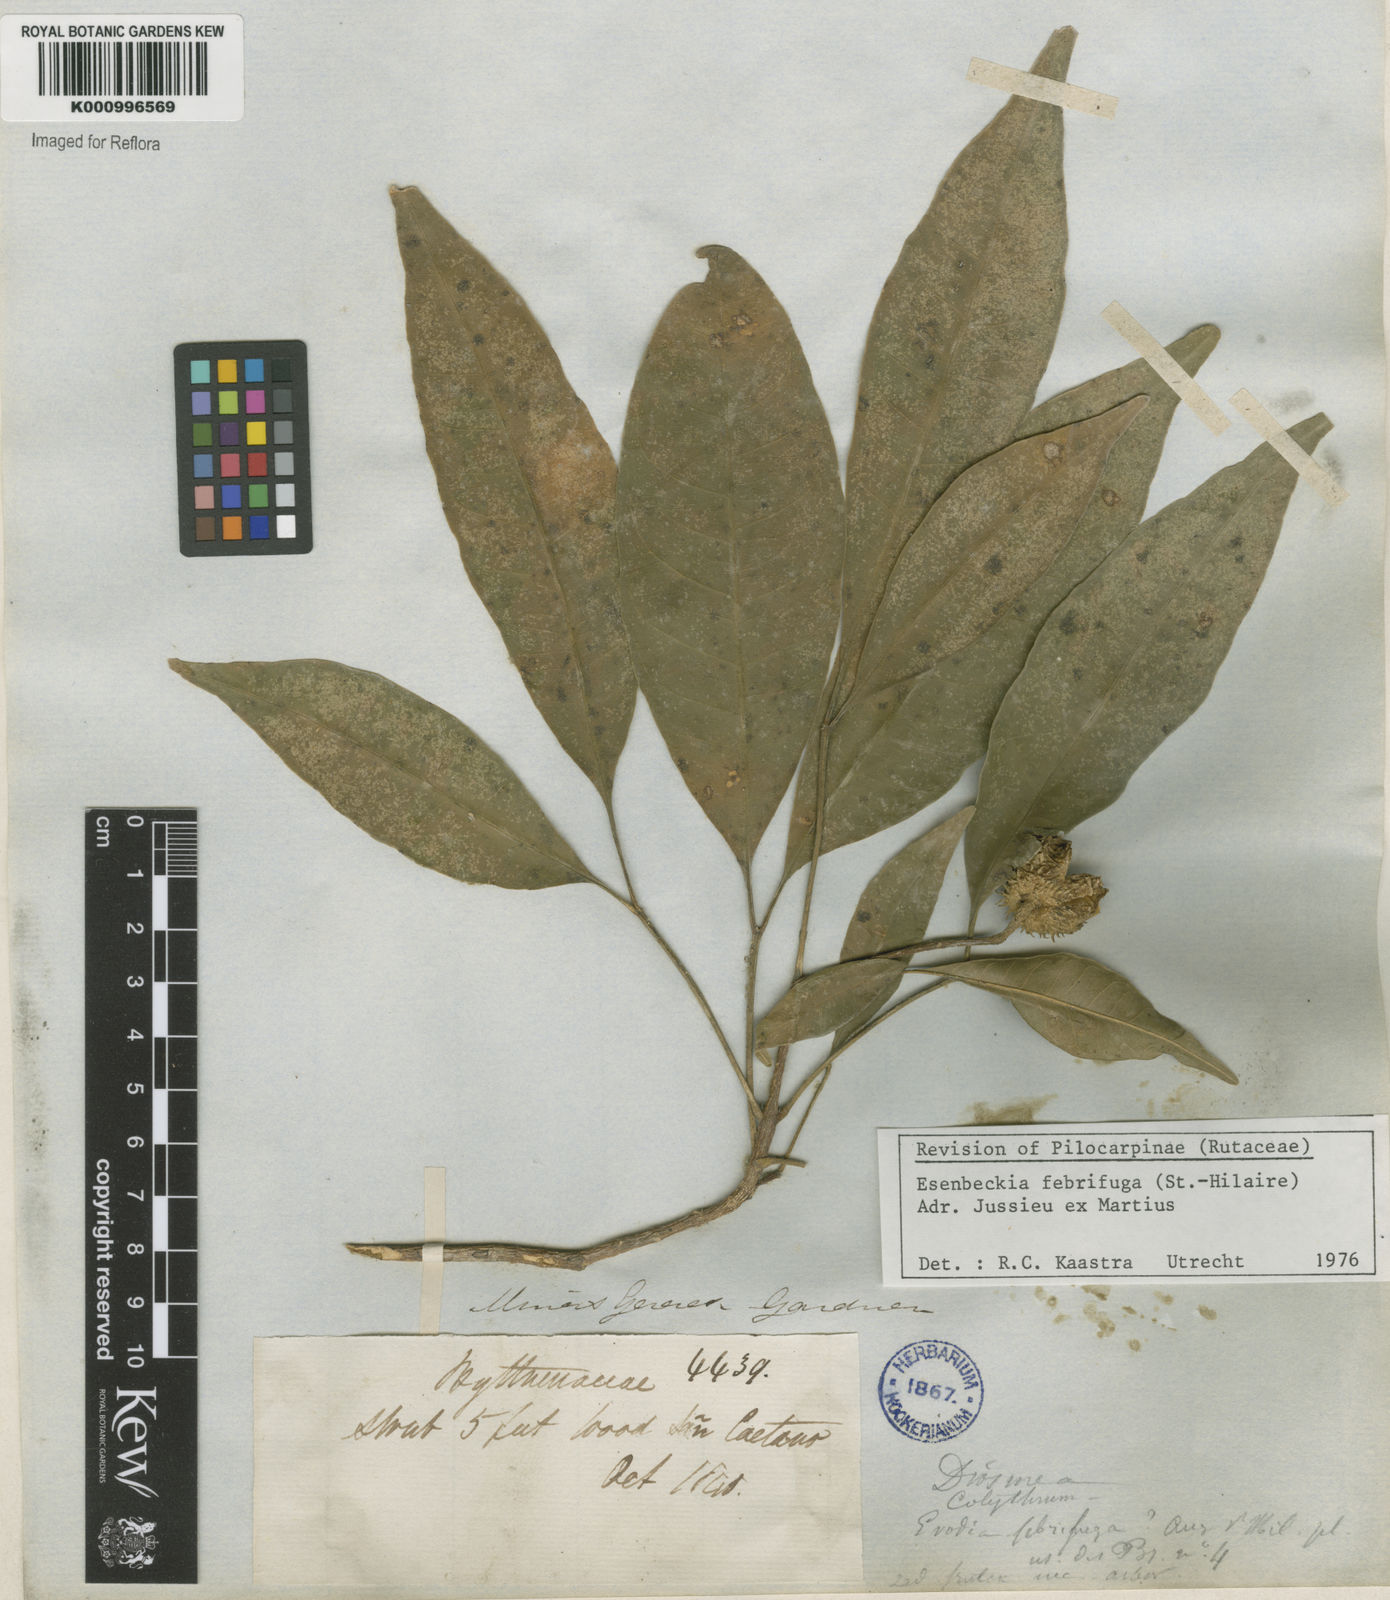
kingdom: Plantae
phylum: Tracheophyta
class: Magnoliopsida
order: Sapindales
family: Rutaceae
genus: Esenbeckia
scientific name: Esenbeckia febrifuga
